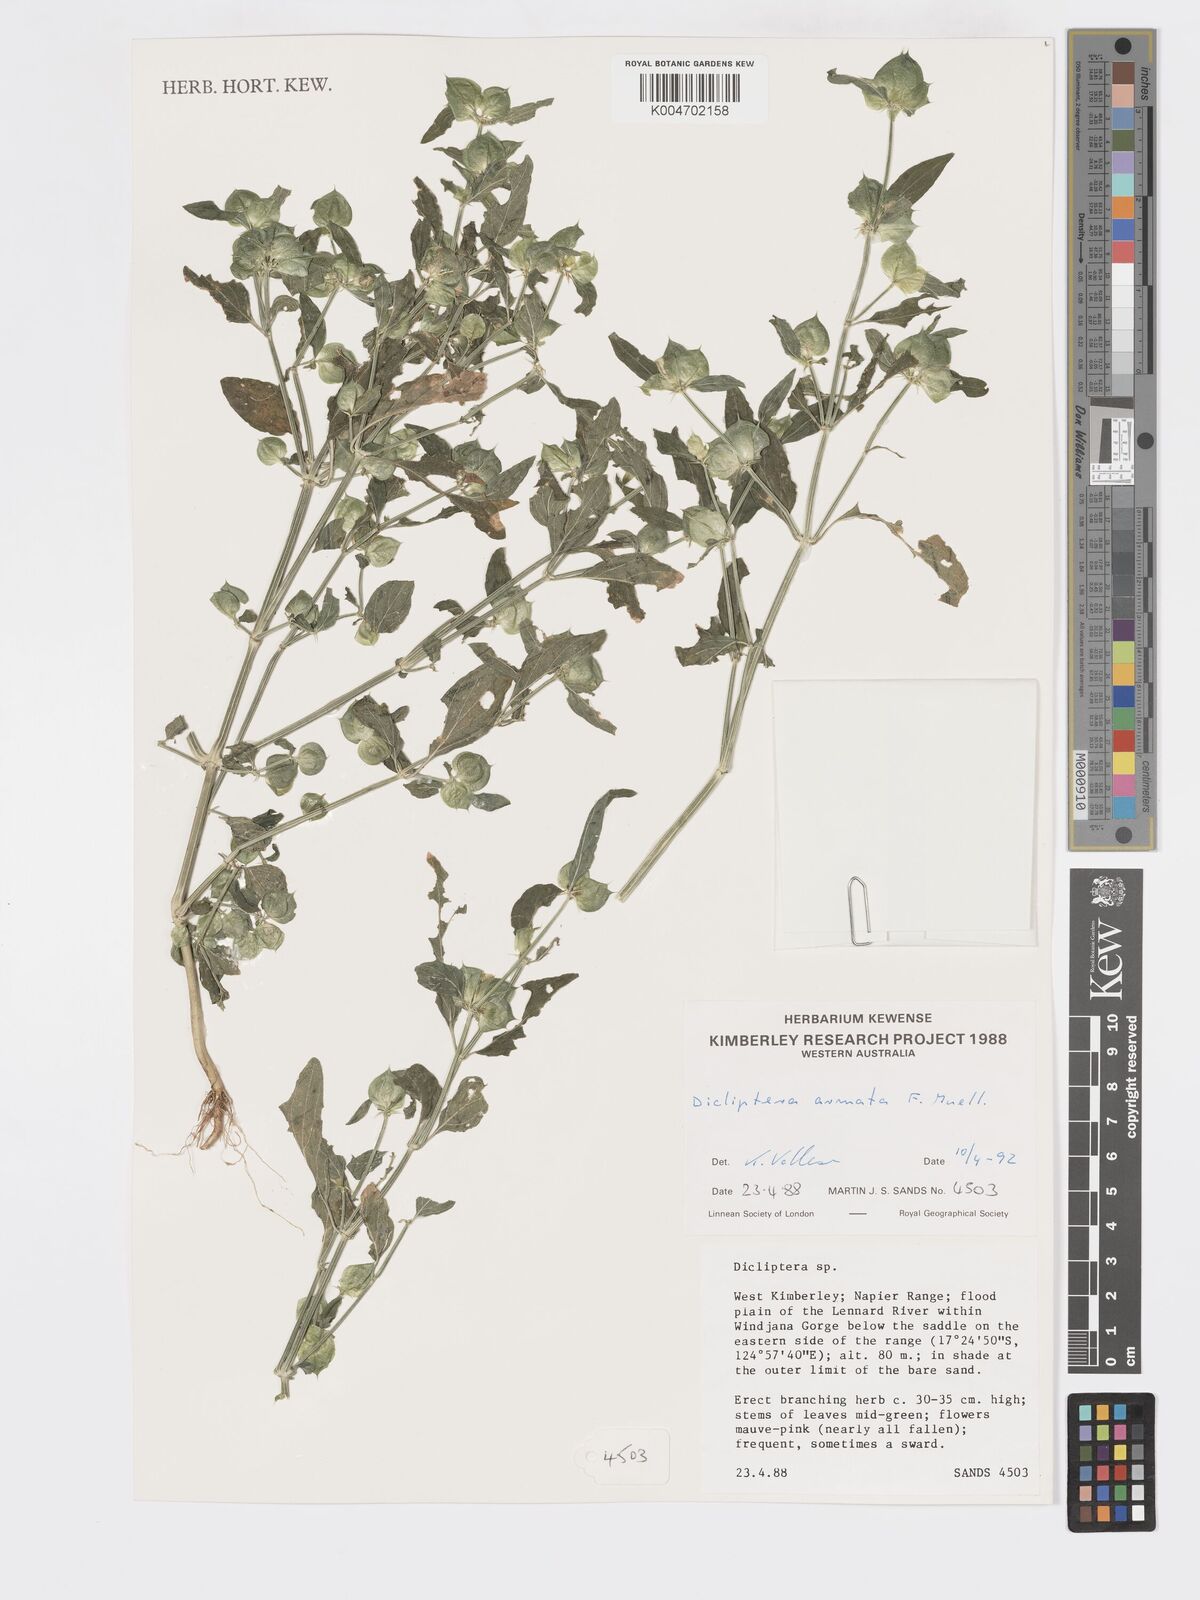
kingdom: Plantae
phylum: Tracheophyta
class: Magnoliopsida
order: Lamiales
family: Acanthaceae
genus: Dicliptera
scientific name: Dicliptera armata
